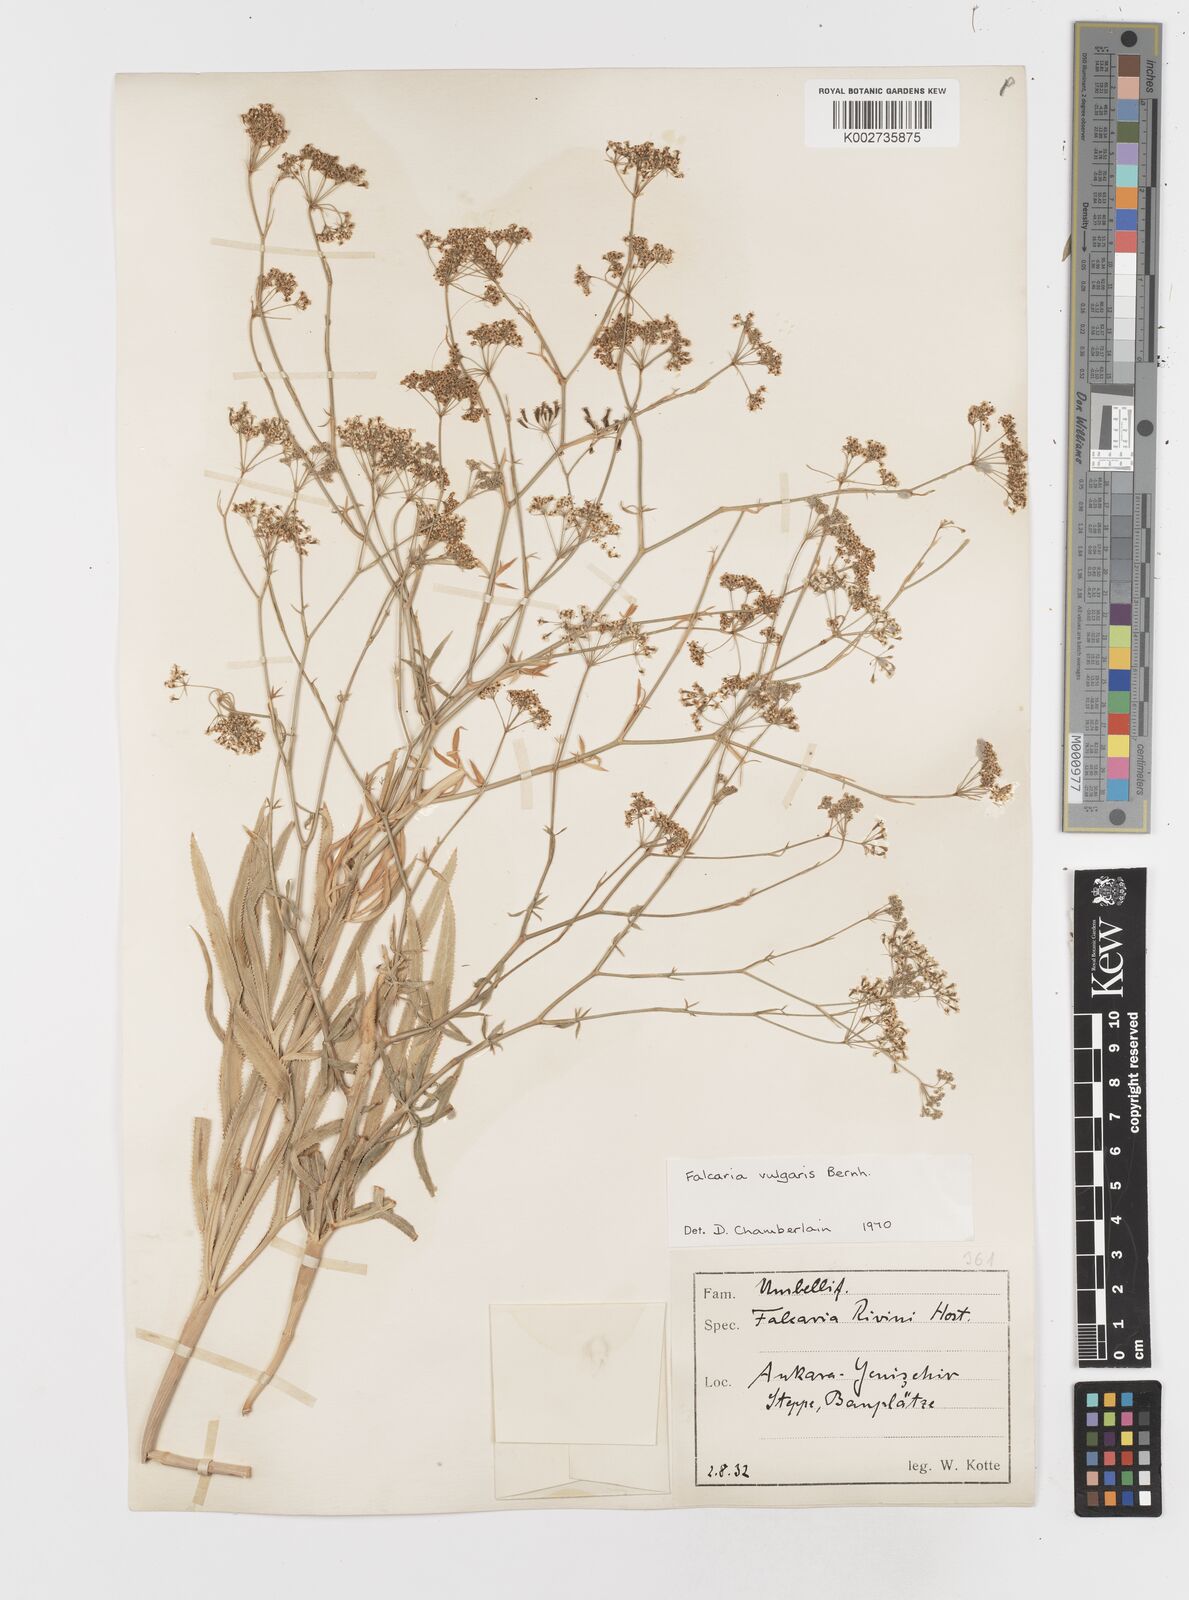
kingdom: Plantae
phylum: Tracheophyta
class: Magnoliopsida
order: Apiales
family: Apiaceae
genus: Falcaria
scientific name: Falcaria vulgaris
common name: Longleaf
